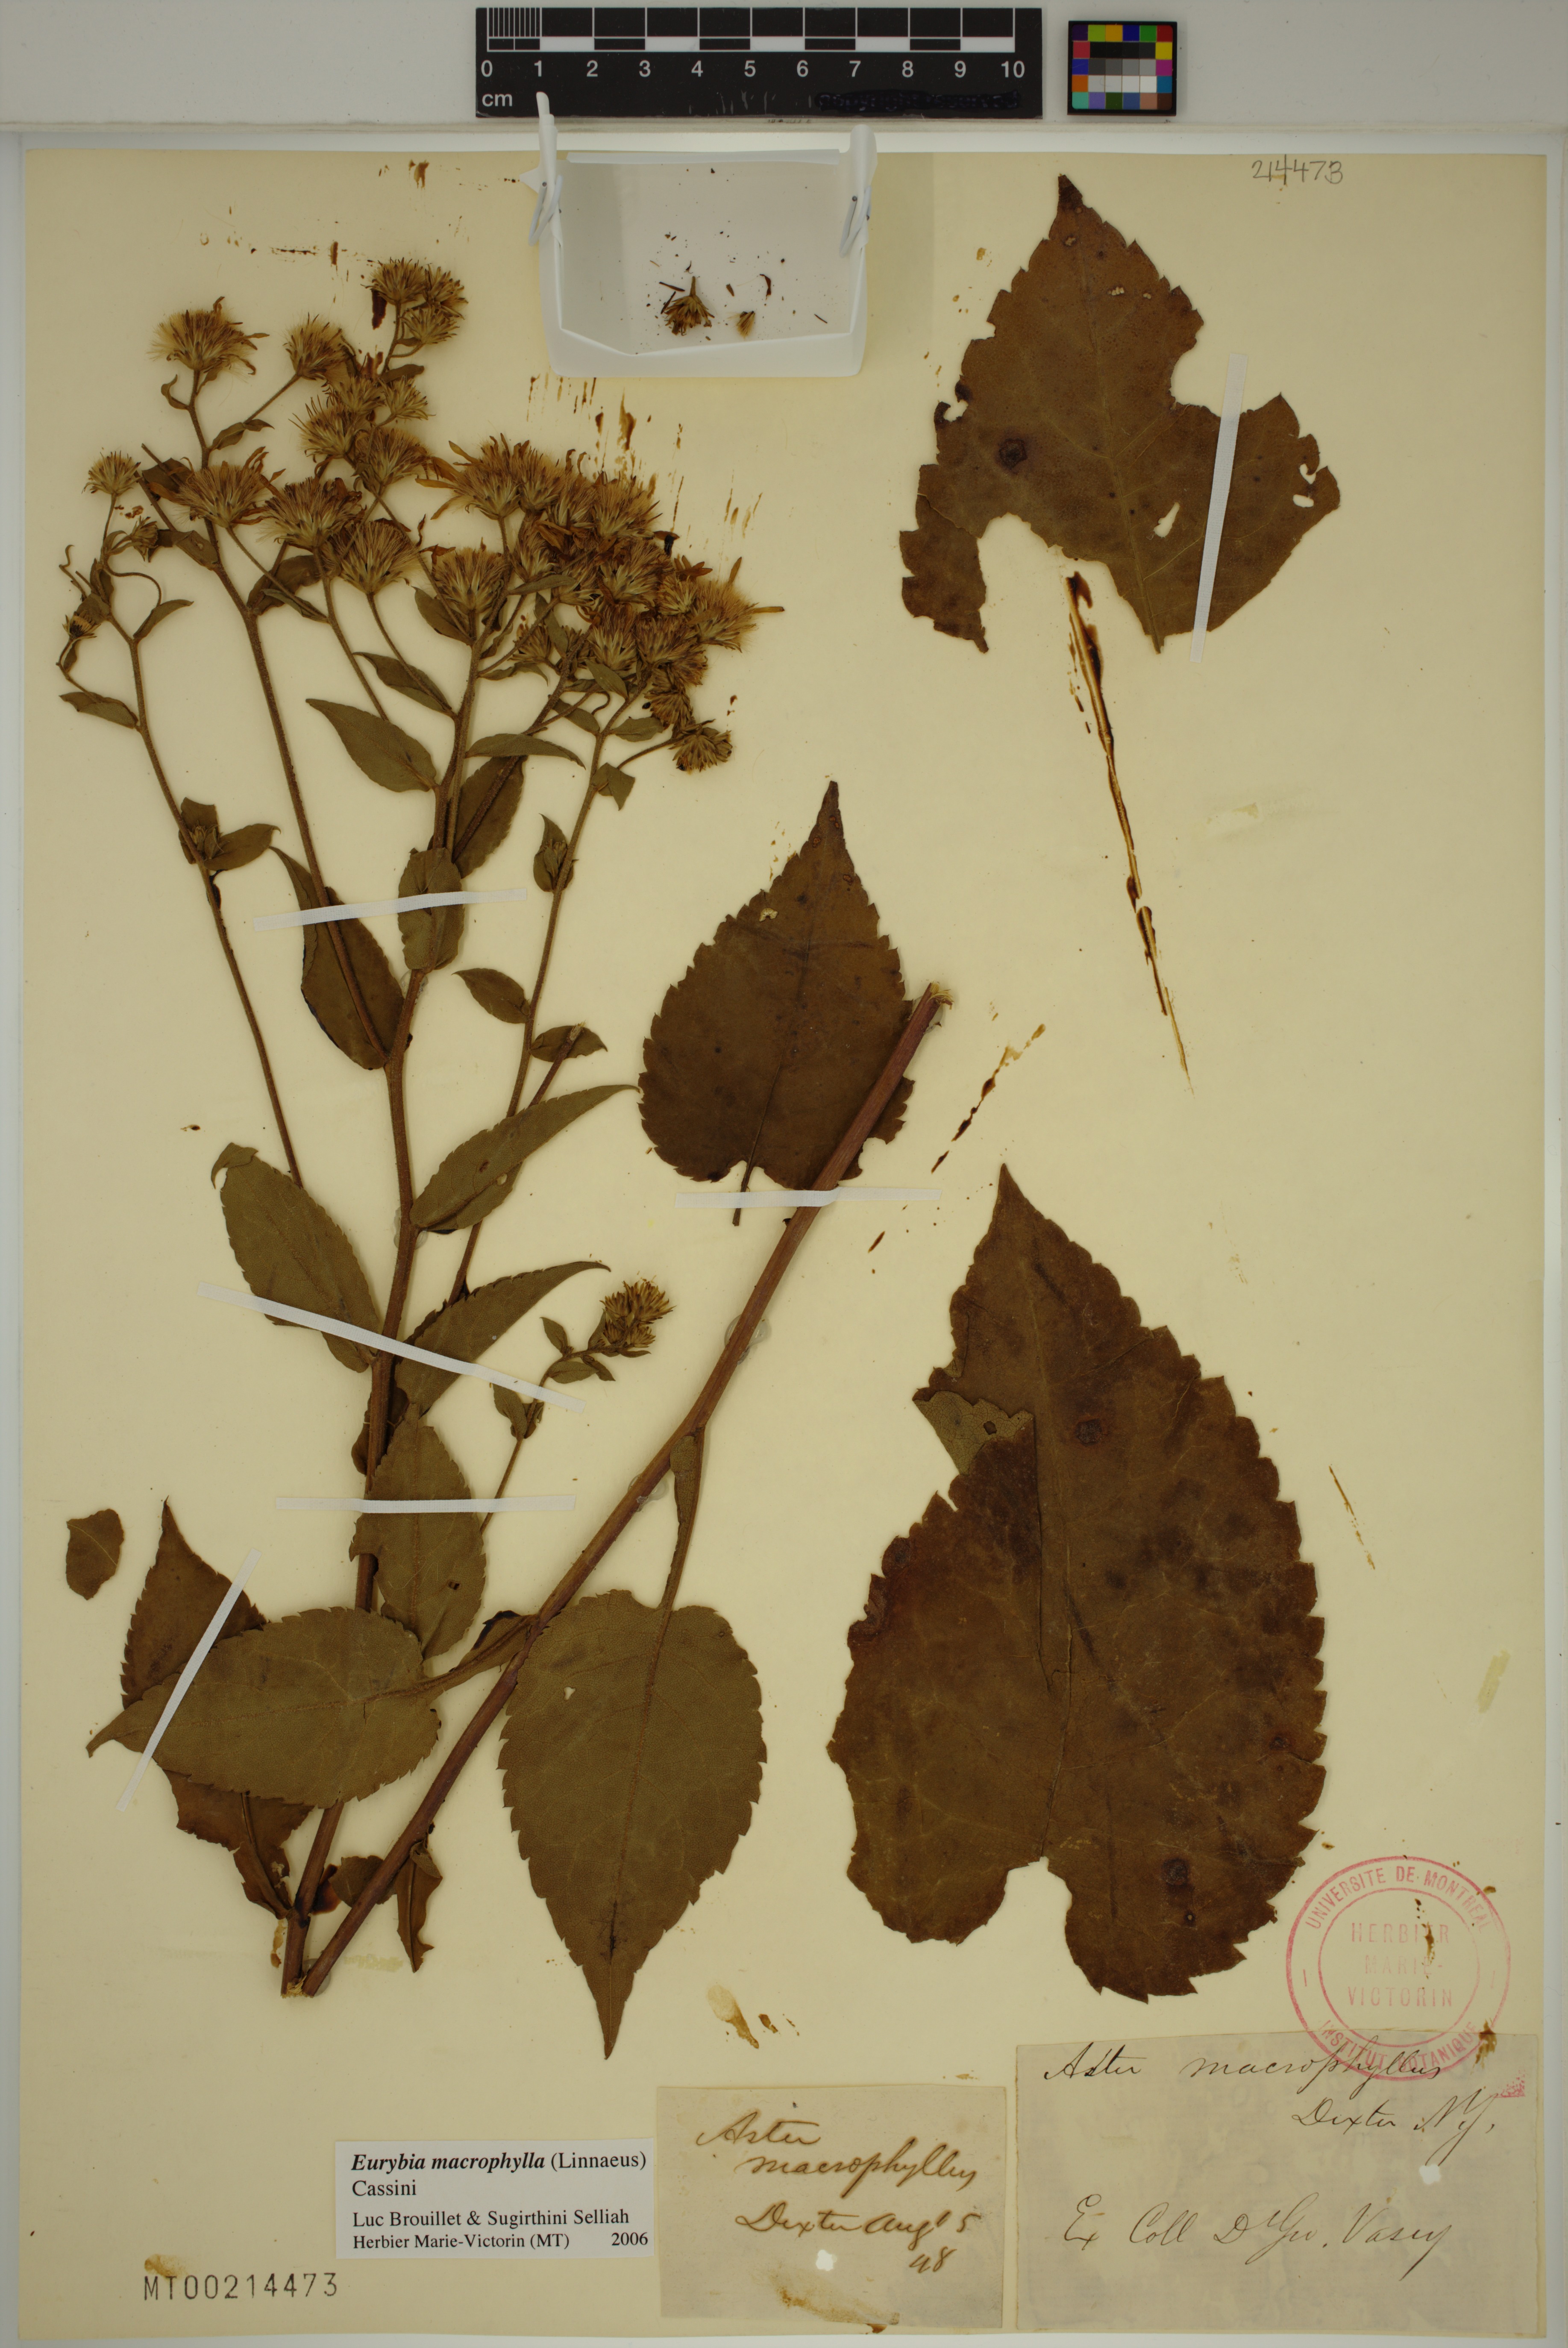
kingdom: Plantae
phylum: Tracheophyta
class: Magnoliopsida
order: Asterales
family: Asteraceae
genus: Eurybia
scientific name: Eurybia macrophylla
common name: Big-leaved aster
